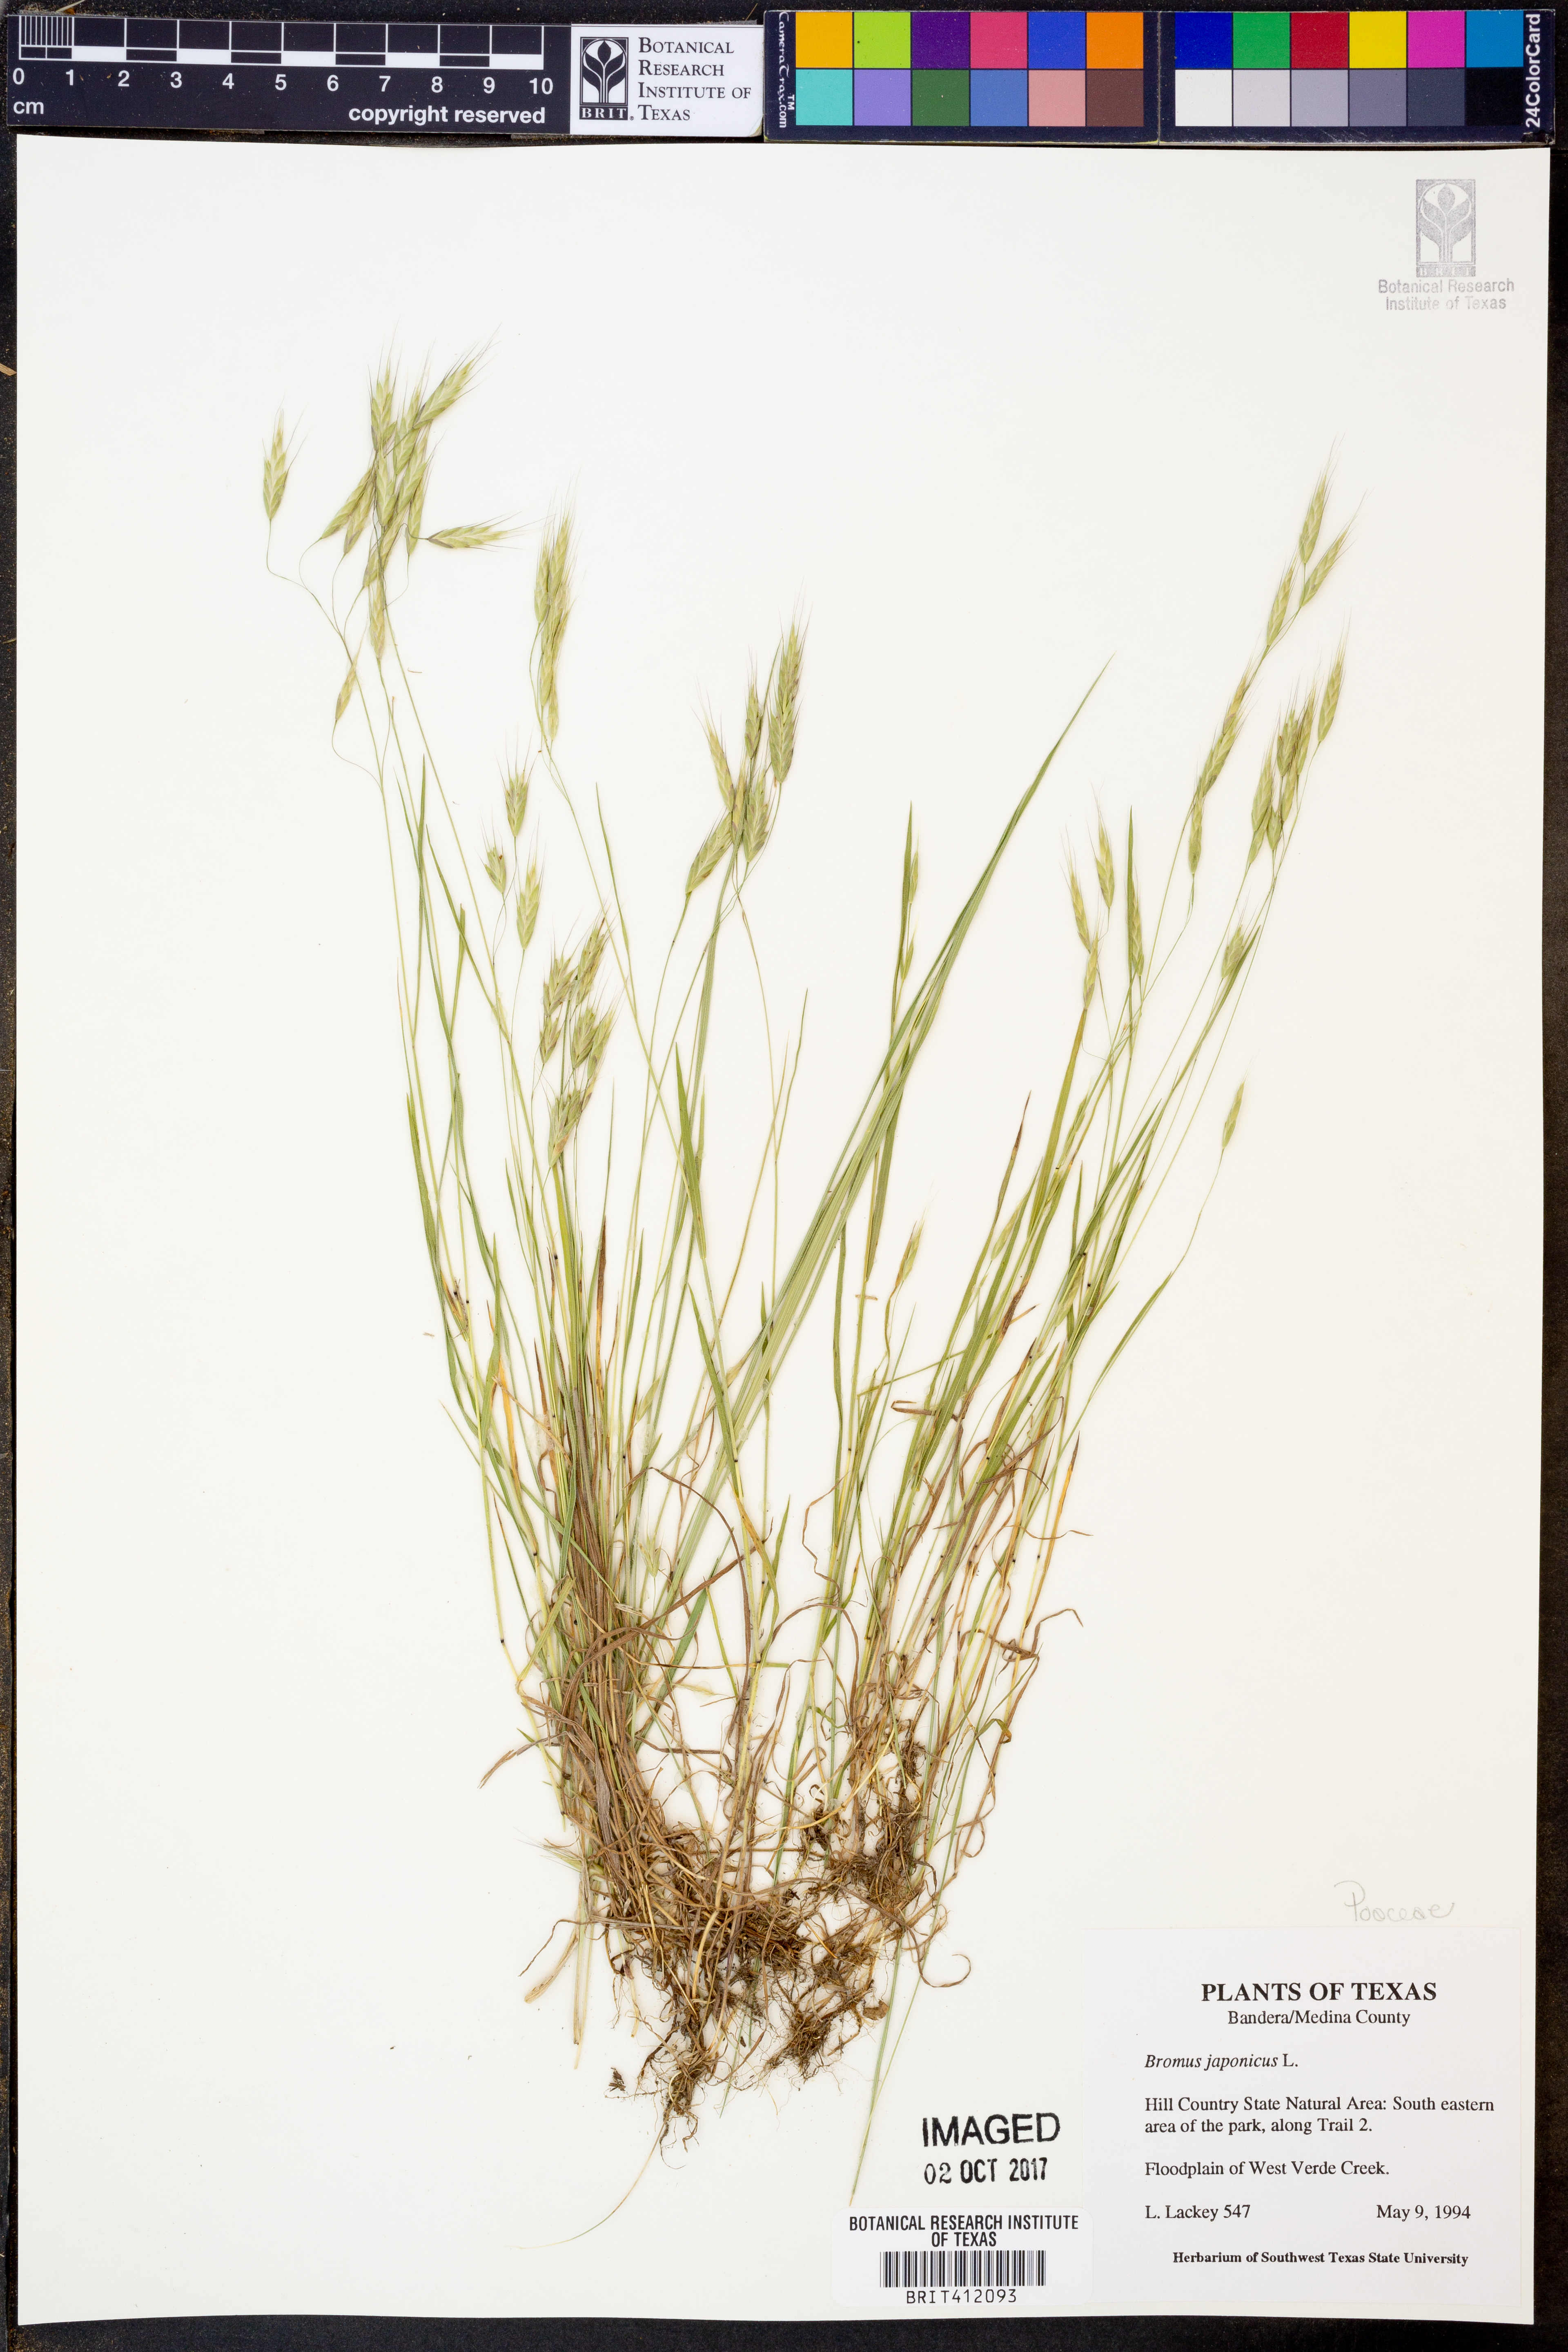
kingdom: Plantae
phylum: Tracheophyta
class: Liliopsida
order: Poales
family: Poaceae
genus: Bromus
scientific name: Bromus japonicus
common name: Japanese brome
